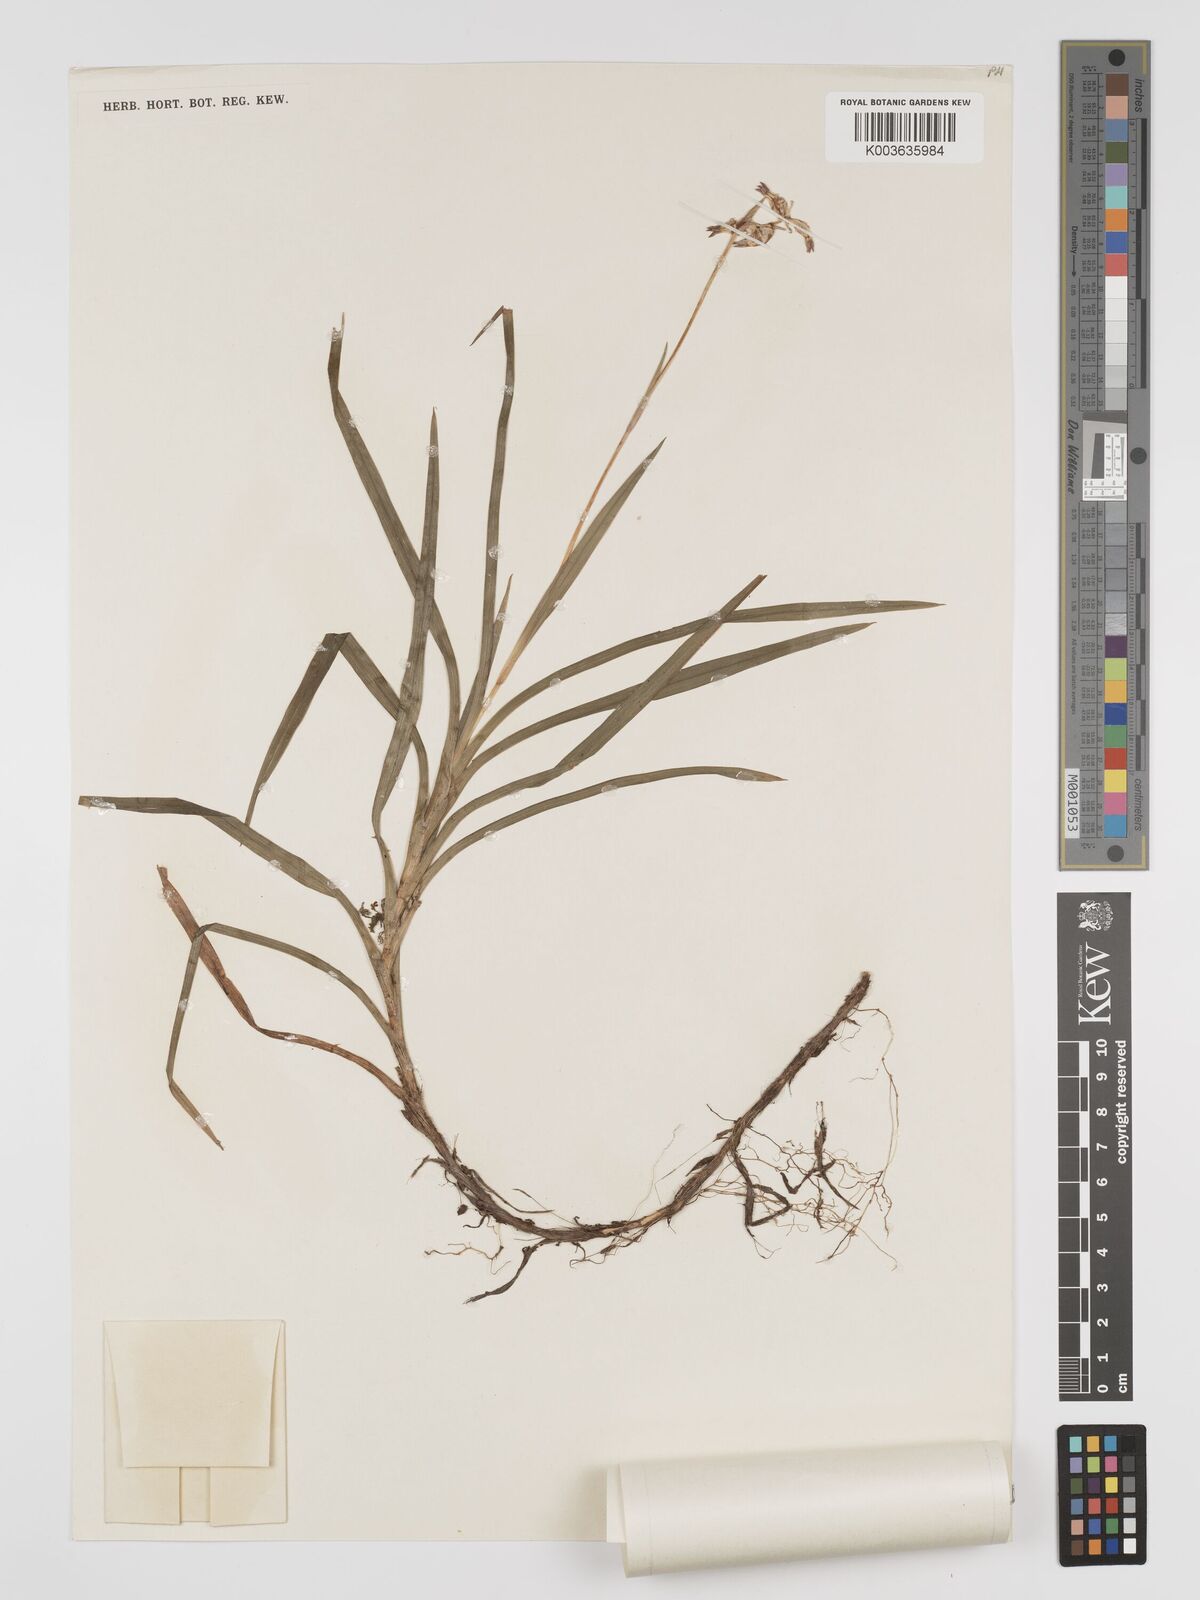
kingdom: Plantae
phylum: Tracheophyta
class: Liliopsida
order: Dioscoreales
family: Burmanniaceae
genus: Burmannia
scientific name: Burmannia longifolia
